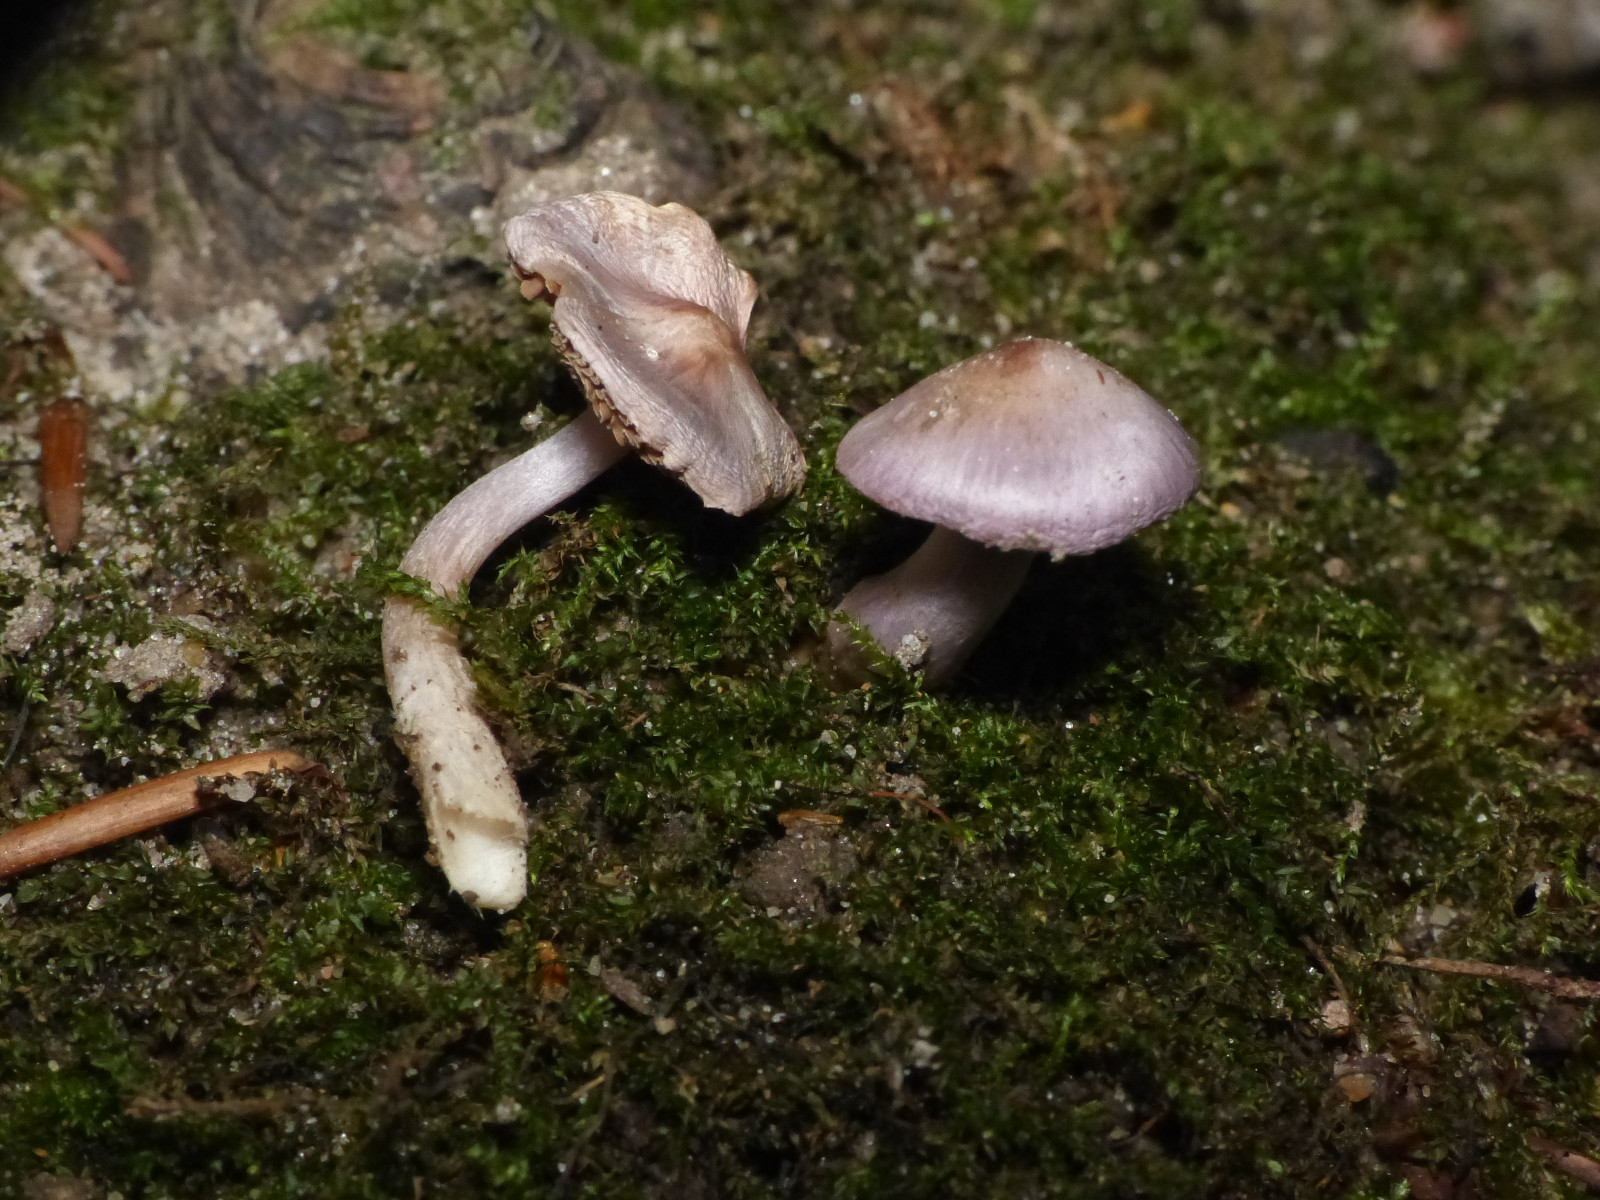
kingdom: Fungi
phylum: Basidiomycota
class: Agaricomycetes
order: Agaricales
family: Inocybaceae
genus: Inocybe
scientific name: Inocybe geophylla
